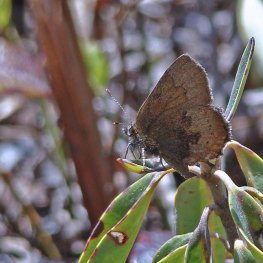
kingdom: Animalia
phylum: Arthropoda
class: Insecta
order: Lepidoptera
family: Lycaenidae
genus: Incisalia
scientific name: Incisalia irioides
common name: Brown Elfin
